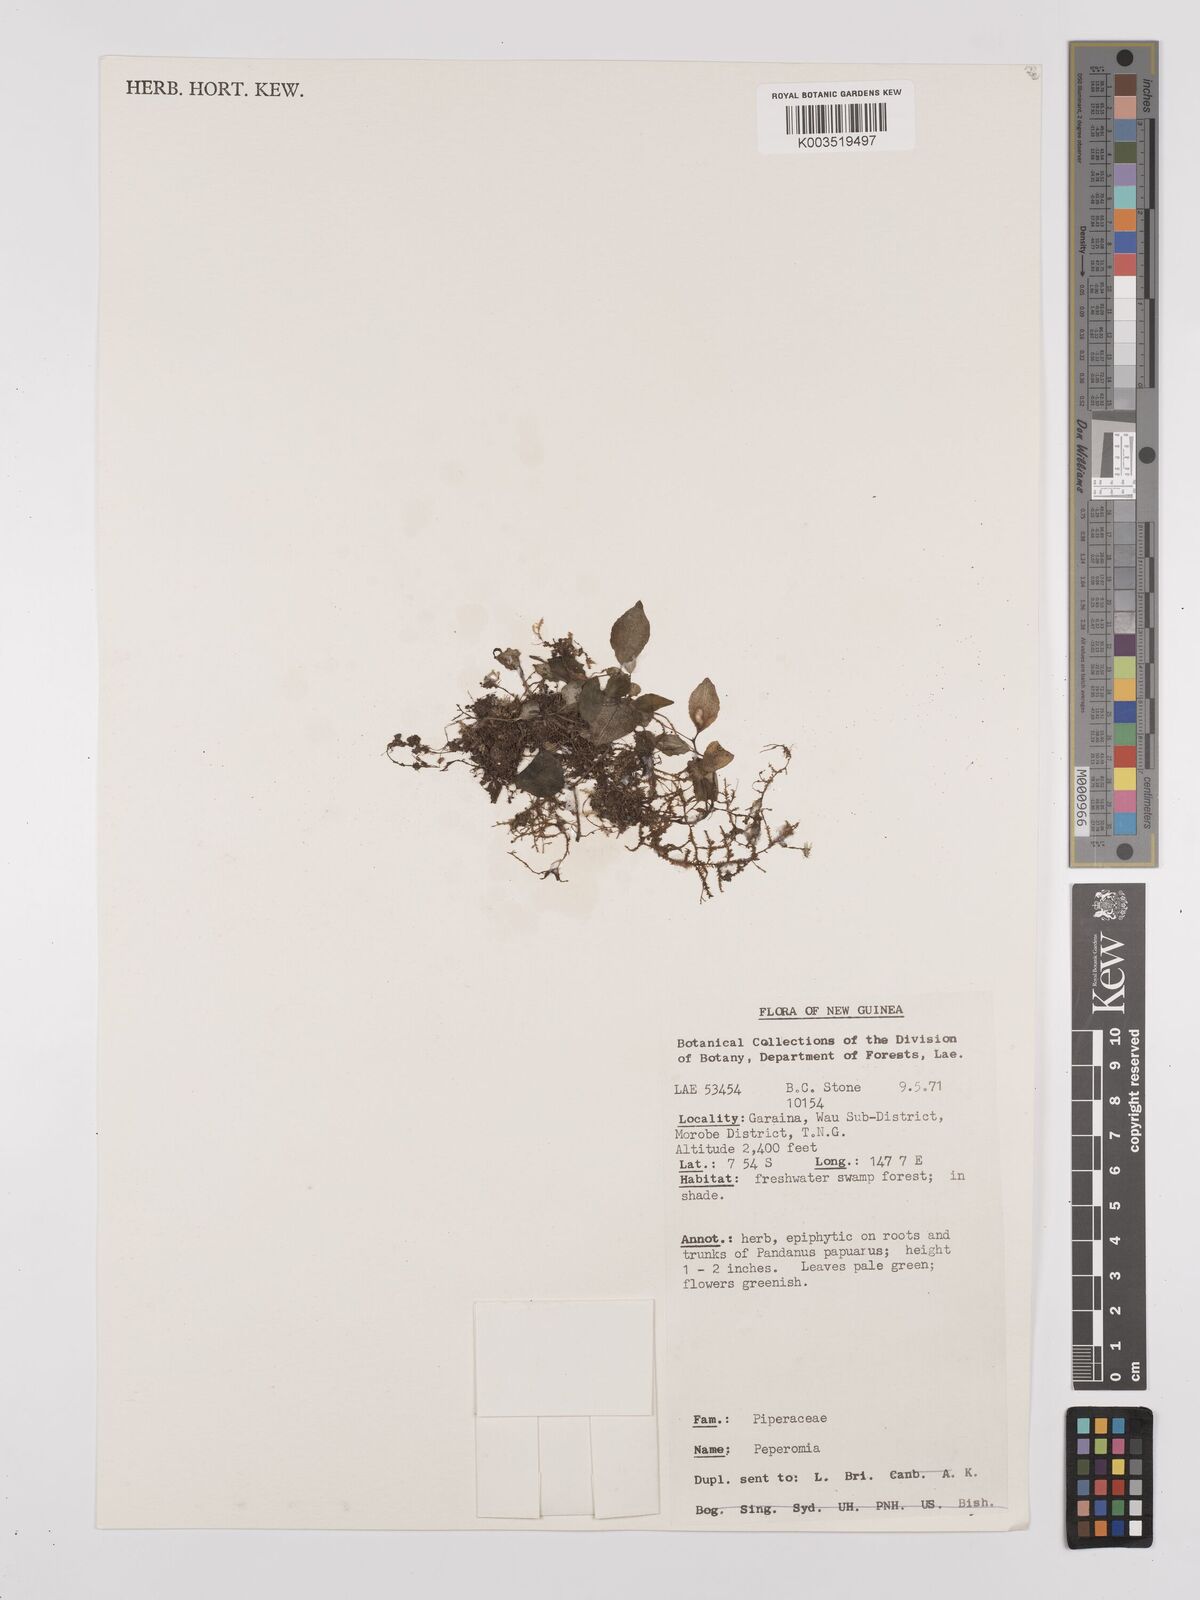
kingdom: Plantae
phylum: Tracheophyta
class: Magnoliopsida
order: Piperales
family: Piperaceae
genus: Peperomia
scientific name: Peperomia
